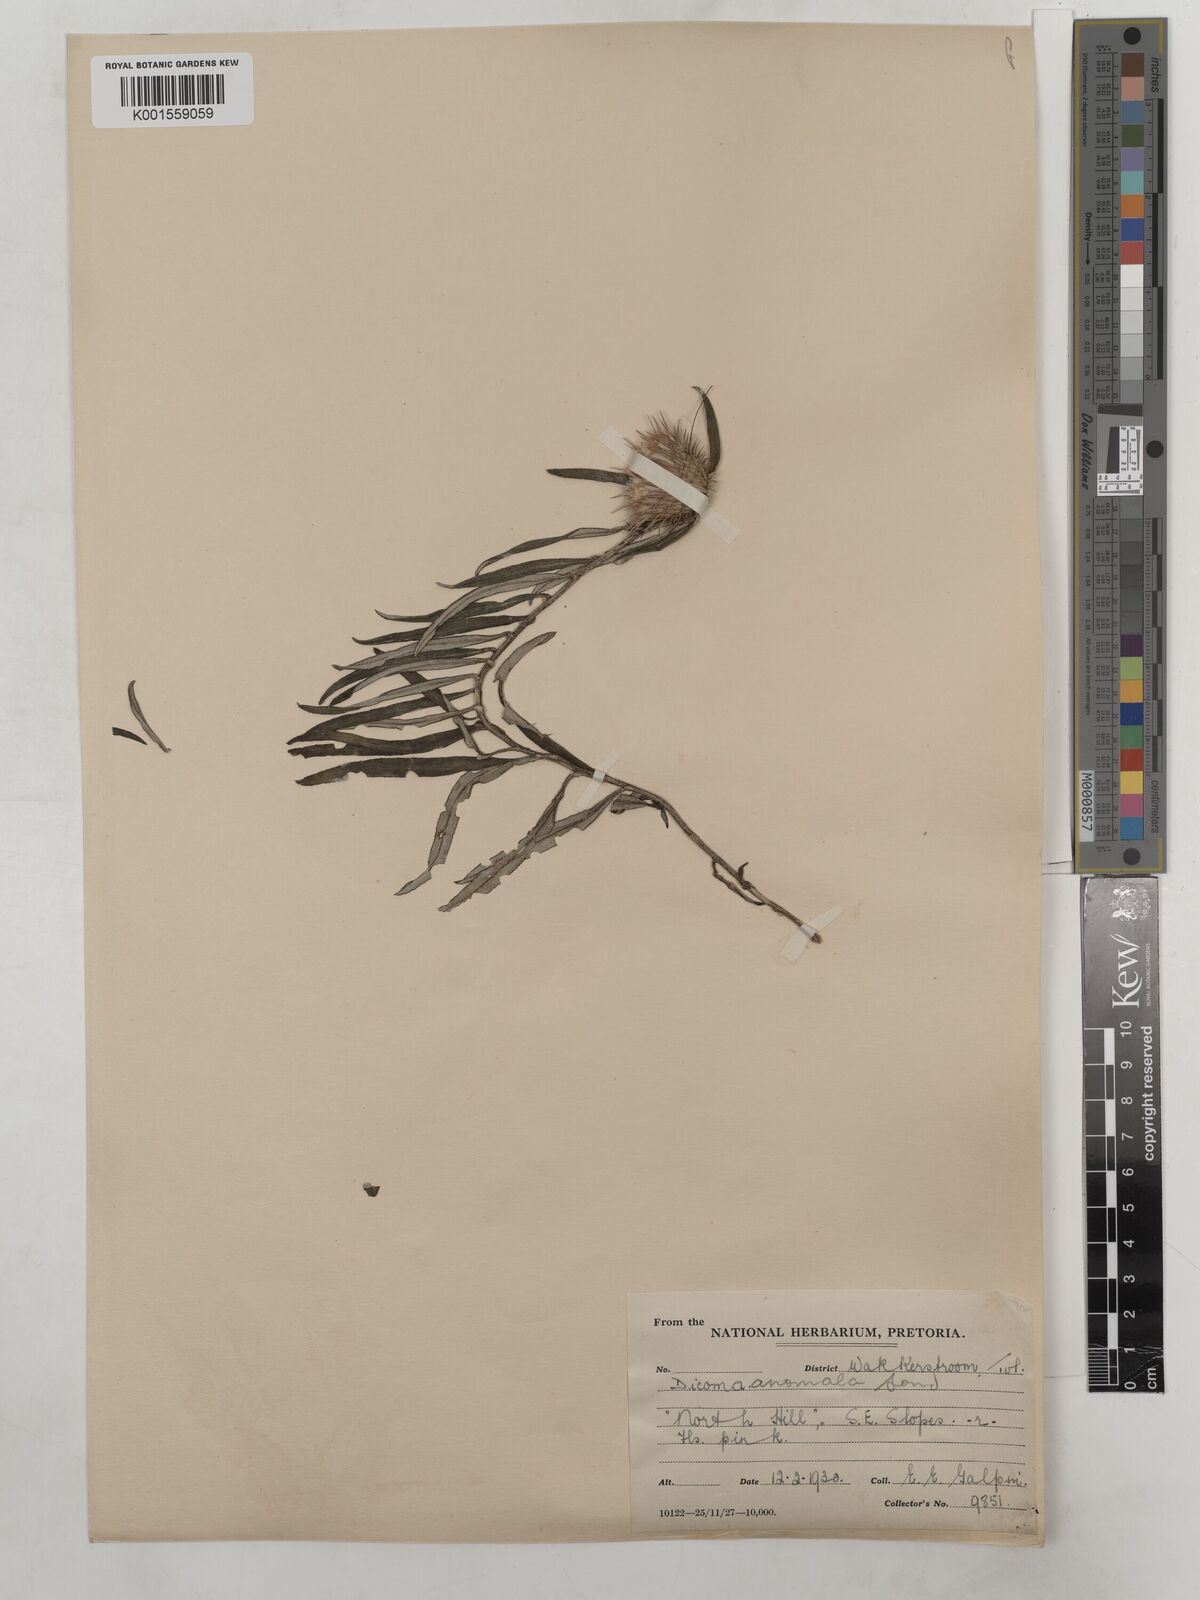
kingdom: Plantae
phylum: Tracheophyta
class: Magnoliopsida
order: Asterales
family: Asteraceae
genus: Dicoma
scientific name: Dicoma anomala
